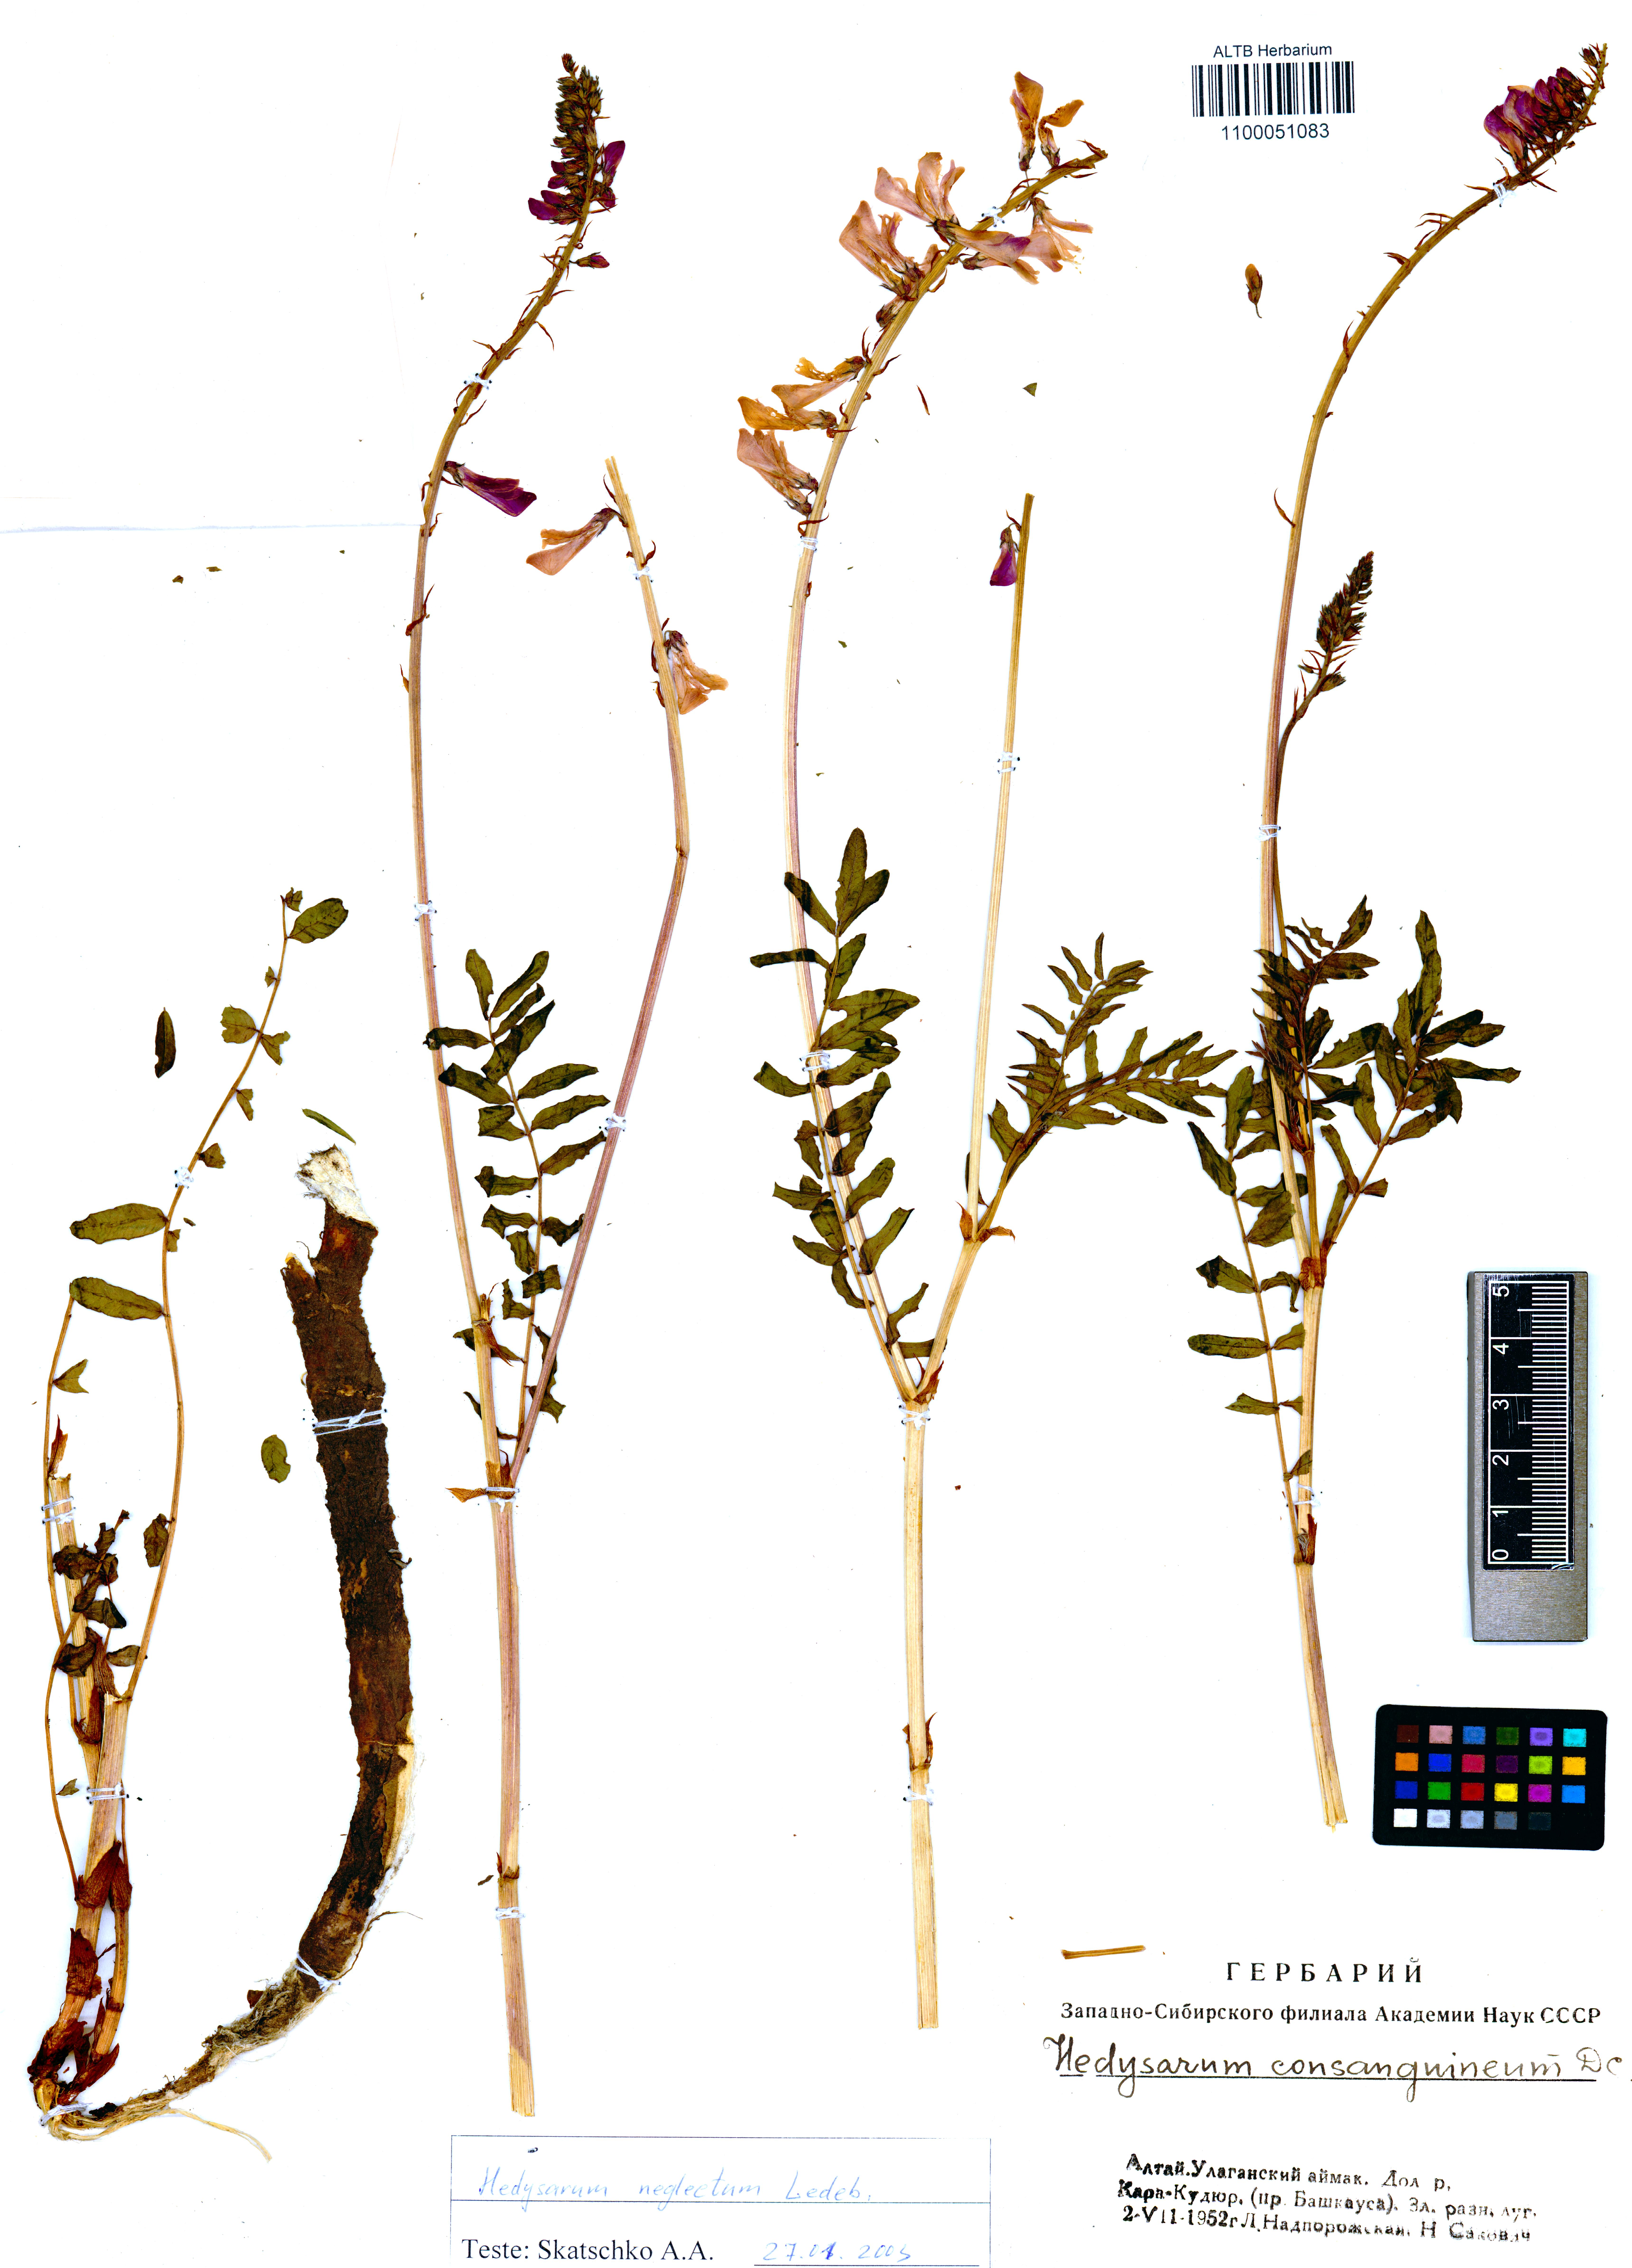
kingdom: Plantae
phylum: Tracheophyta
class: Magnoliopsida
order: Fabales
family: Fabaceae
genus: Hedysarum
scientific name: Hedysarum consanguineum
